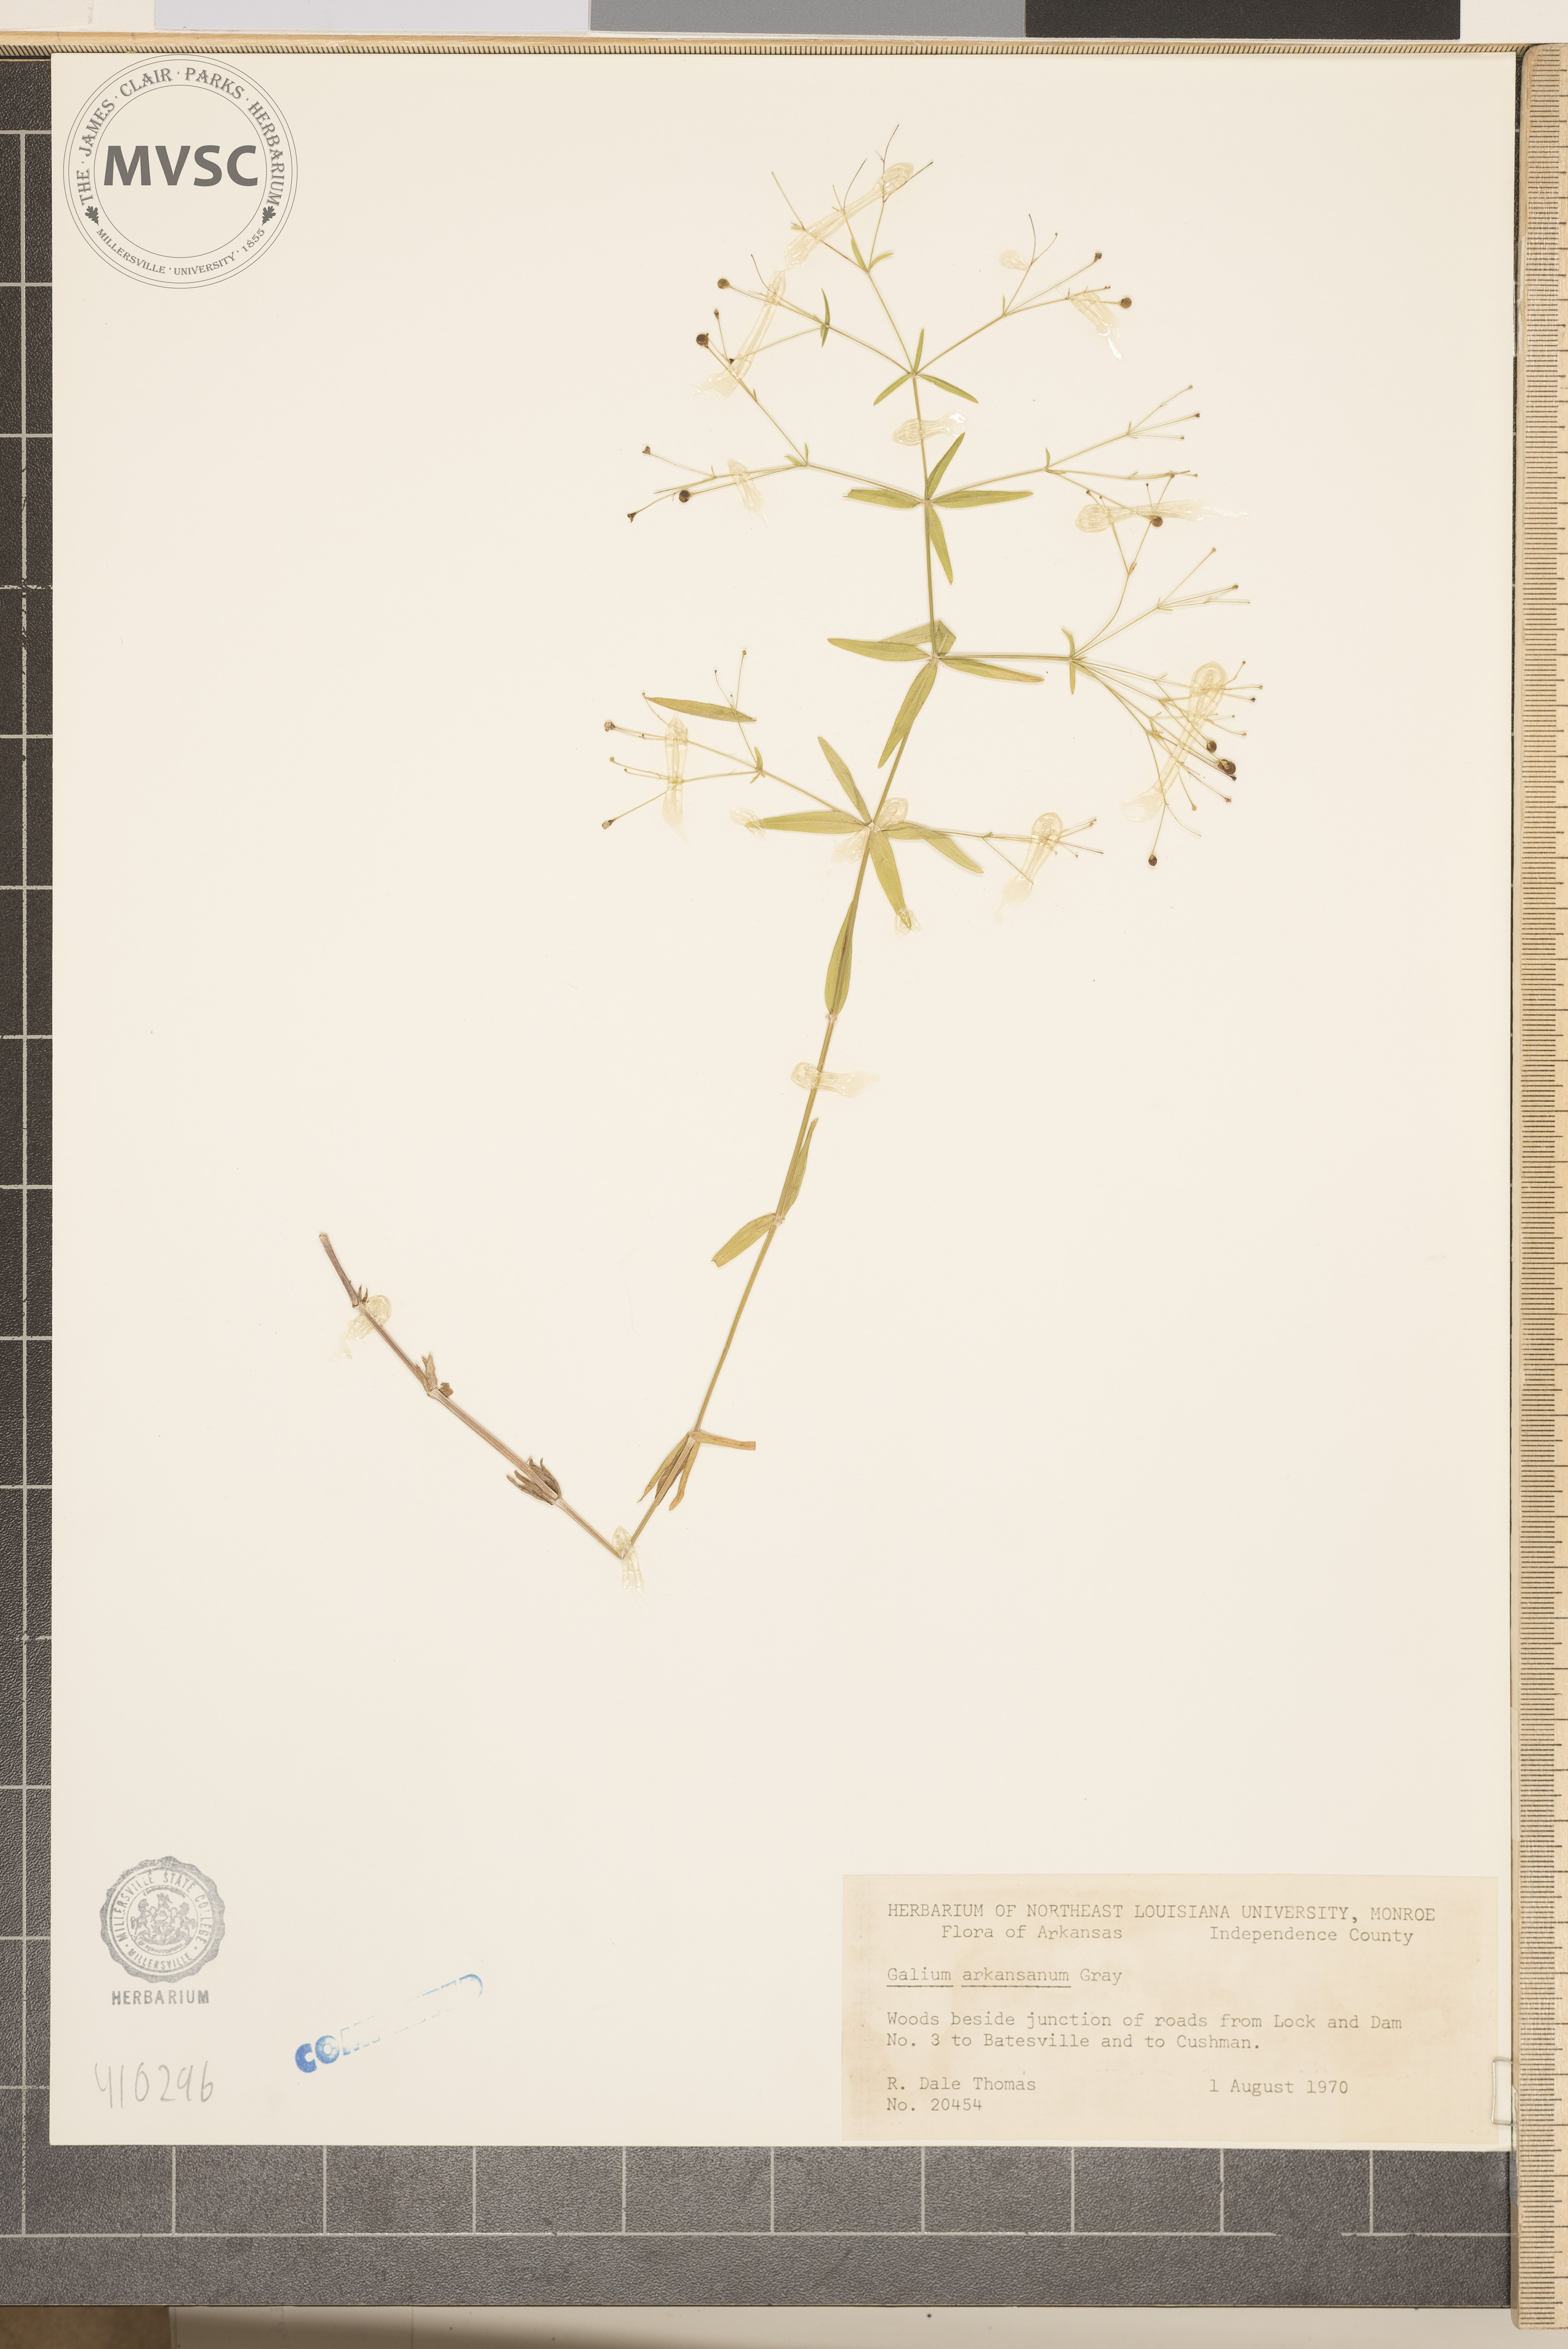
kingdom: Plantae
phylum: Tracheophyta
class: Magnoliopsida
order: Gentianales
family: Rubiaceae
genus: Galium
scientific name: Galium arkansanum
